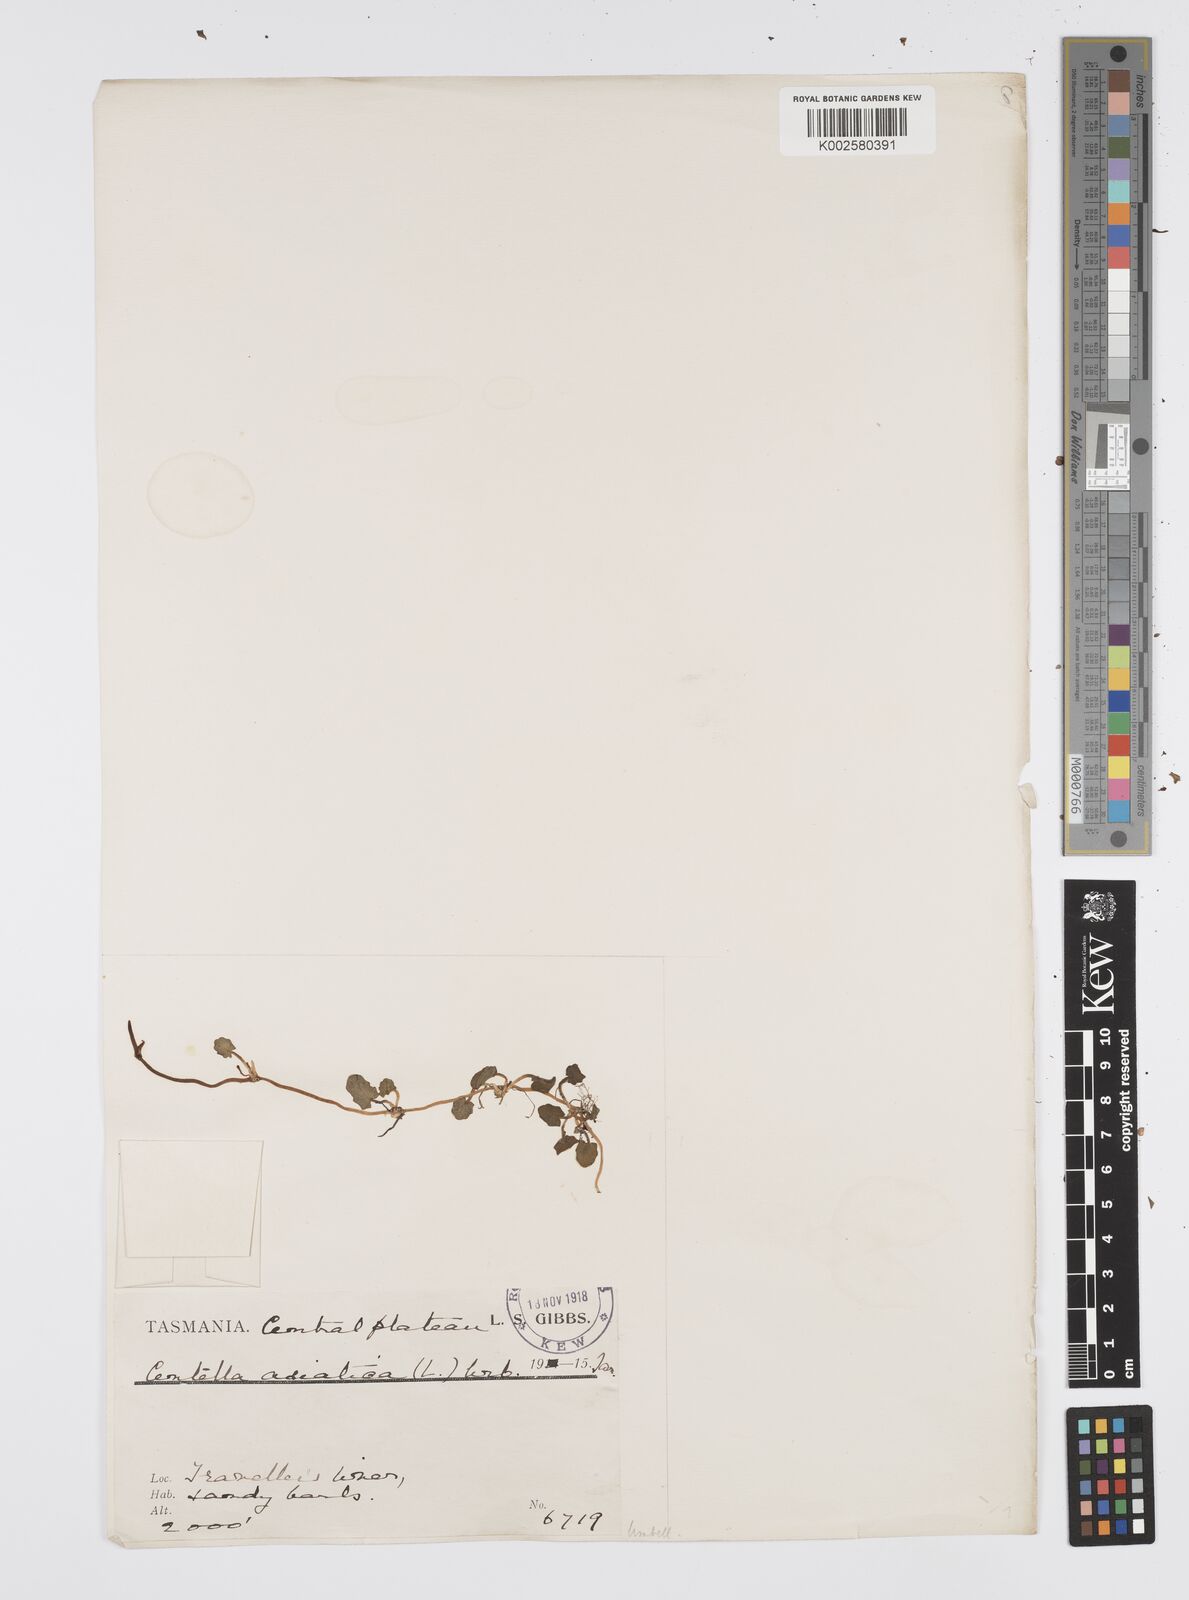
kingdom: Plantae
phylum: Tracheophyta
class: Magnoliopsida
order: Apiales
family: Apiaceae
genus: Centella
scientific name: Centella cordifolia
